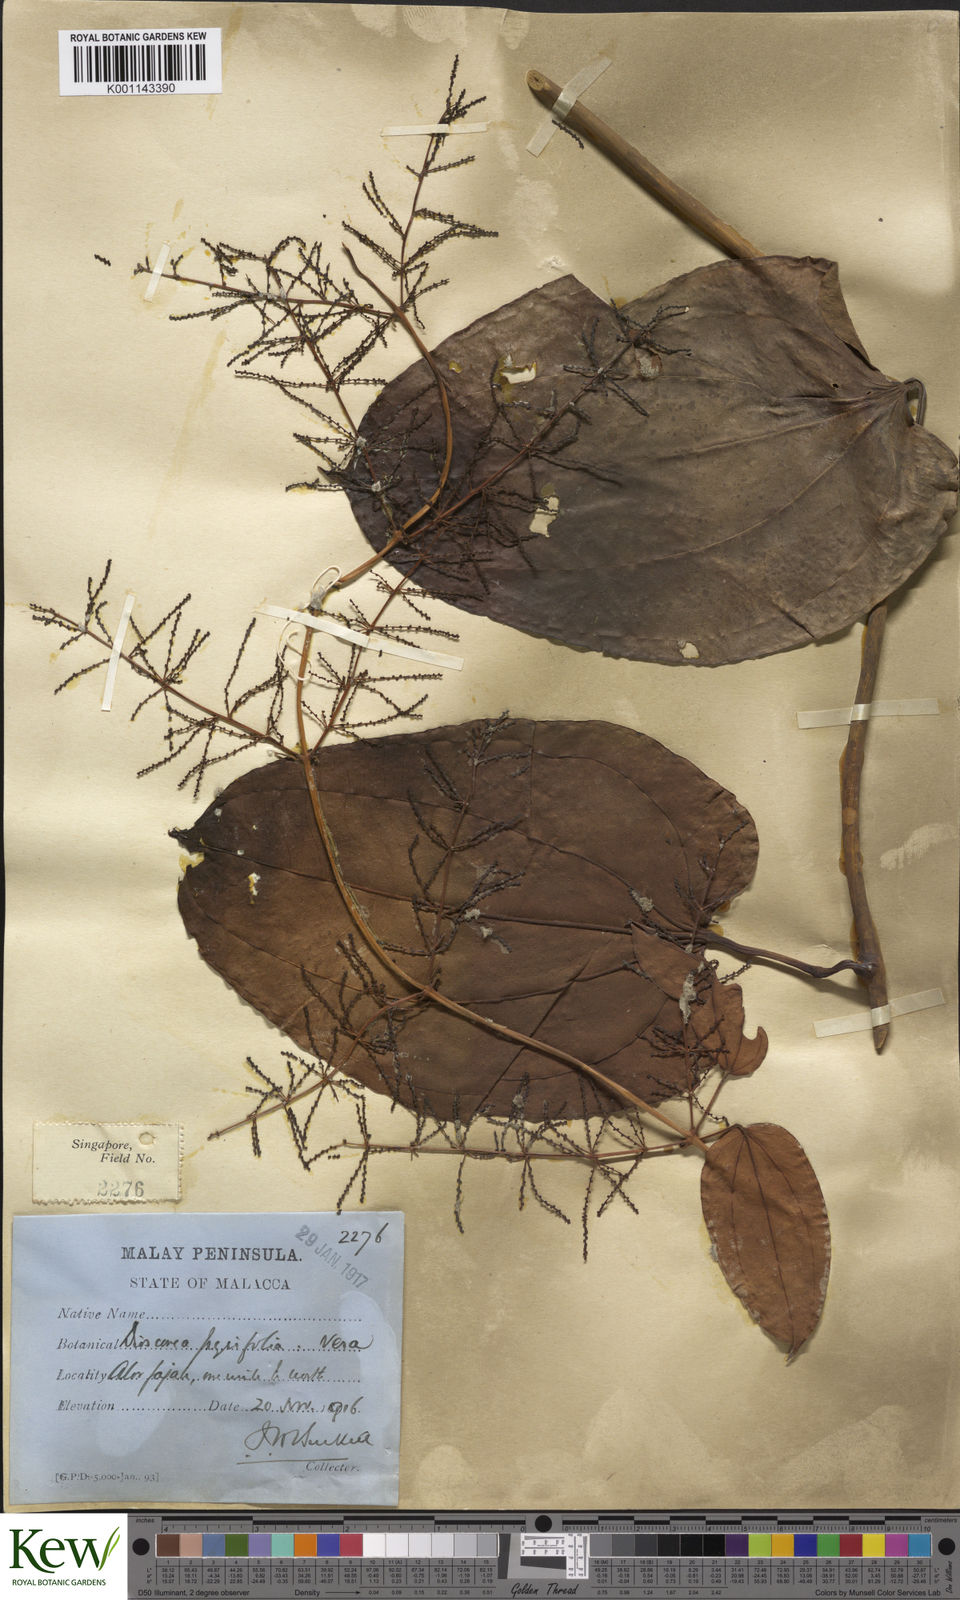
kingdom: Plantae
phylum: Tracheophyta
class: Liliopsida
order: Dioscoreales
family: Dioscoreaceae
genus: Dioscorea
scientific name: Dioscorea pyrifolia
